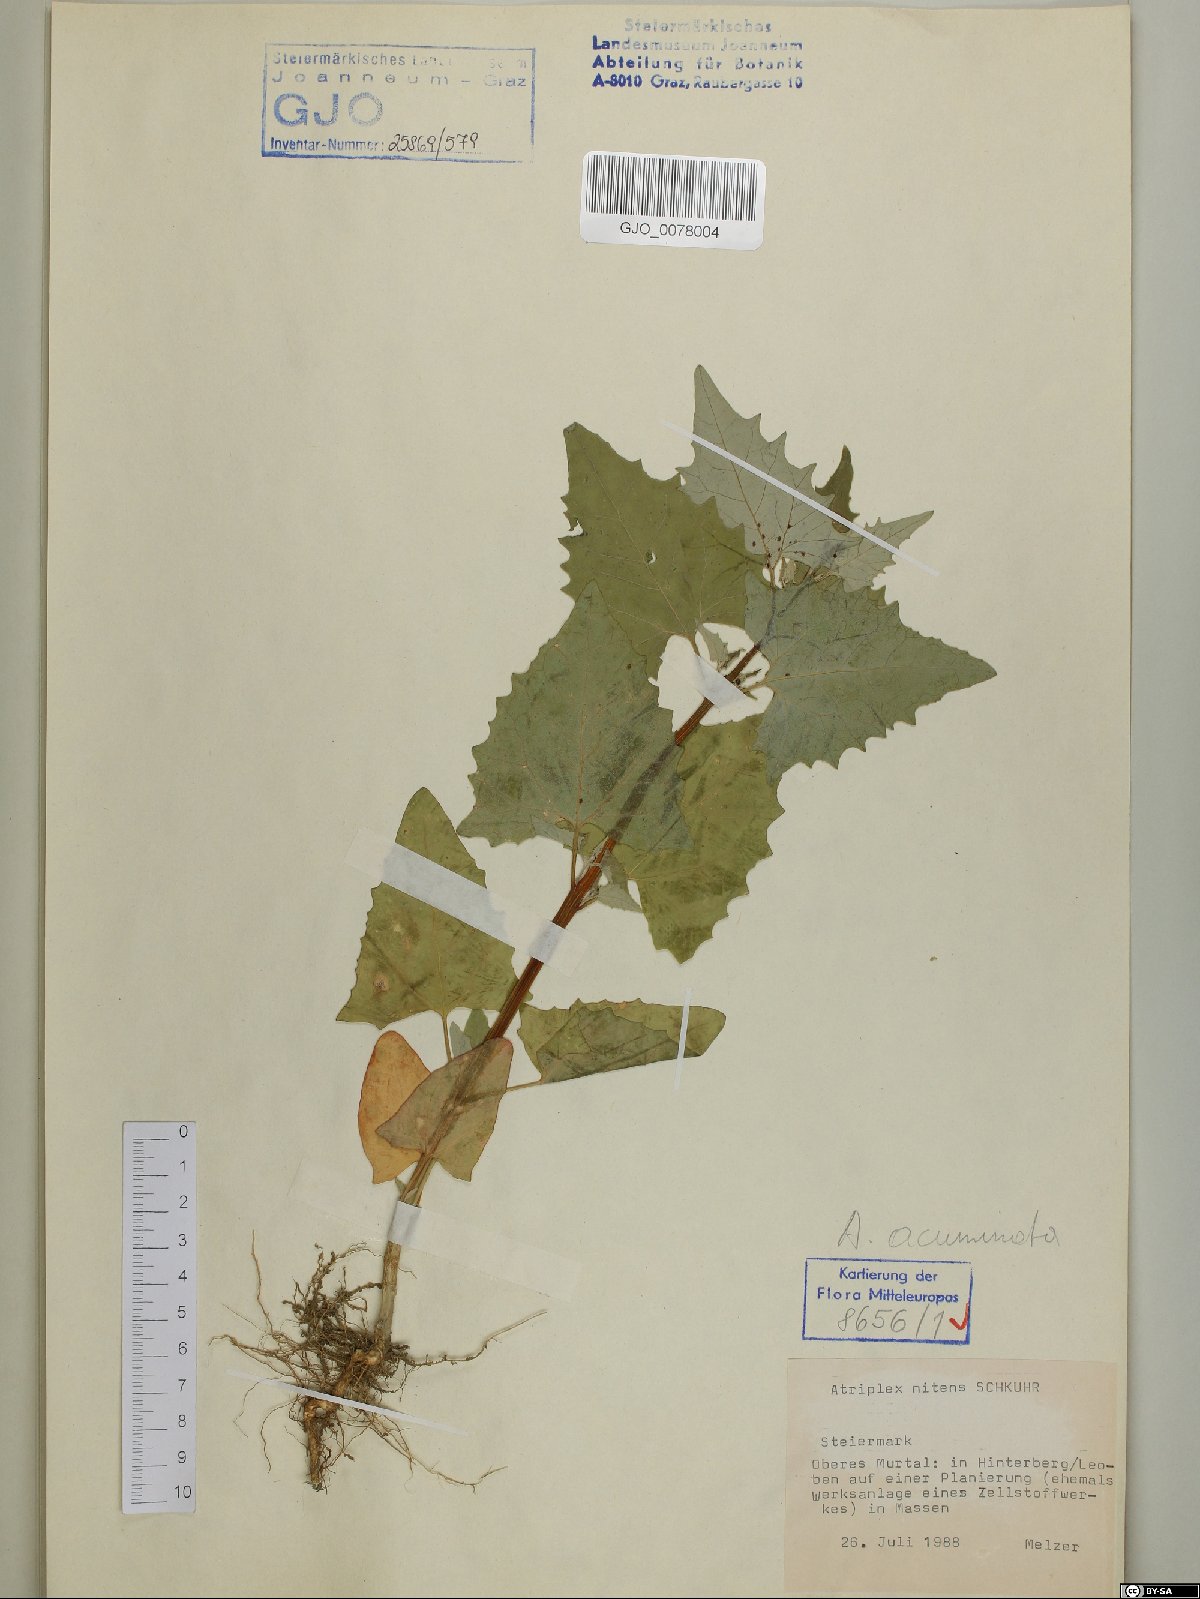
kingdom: Plantae
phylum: Tracheophyta
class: Magnoliopsida
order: Caryophyllales
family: Amaranthaceae
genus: Atriplex
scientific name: Atriplex sagittata
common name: Purple orache
